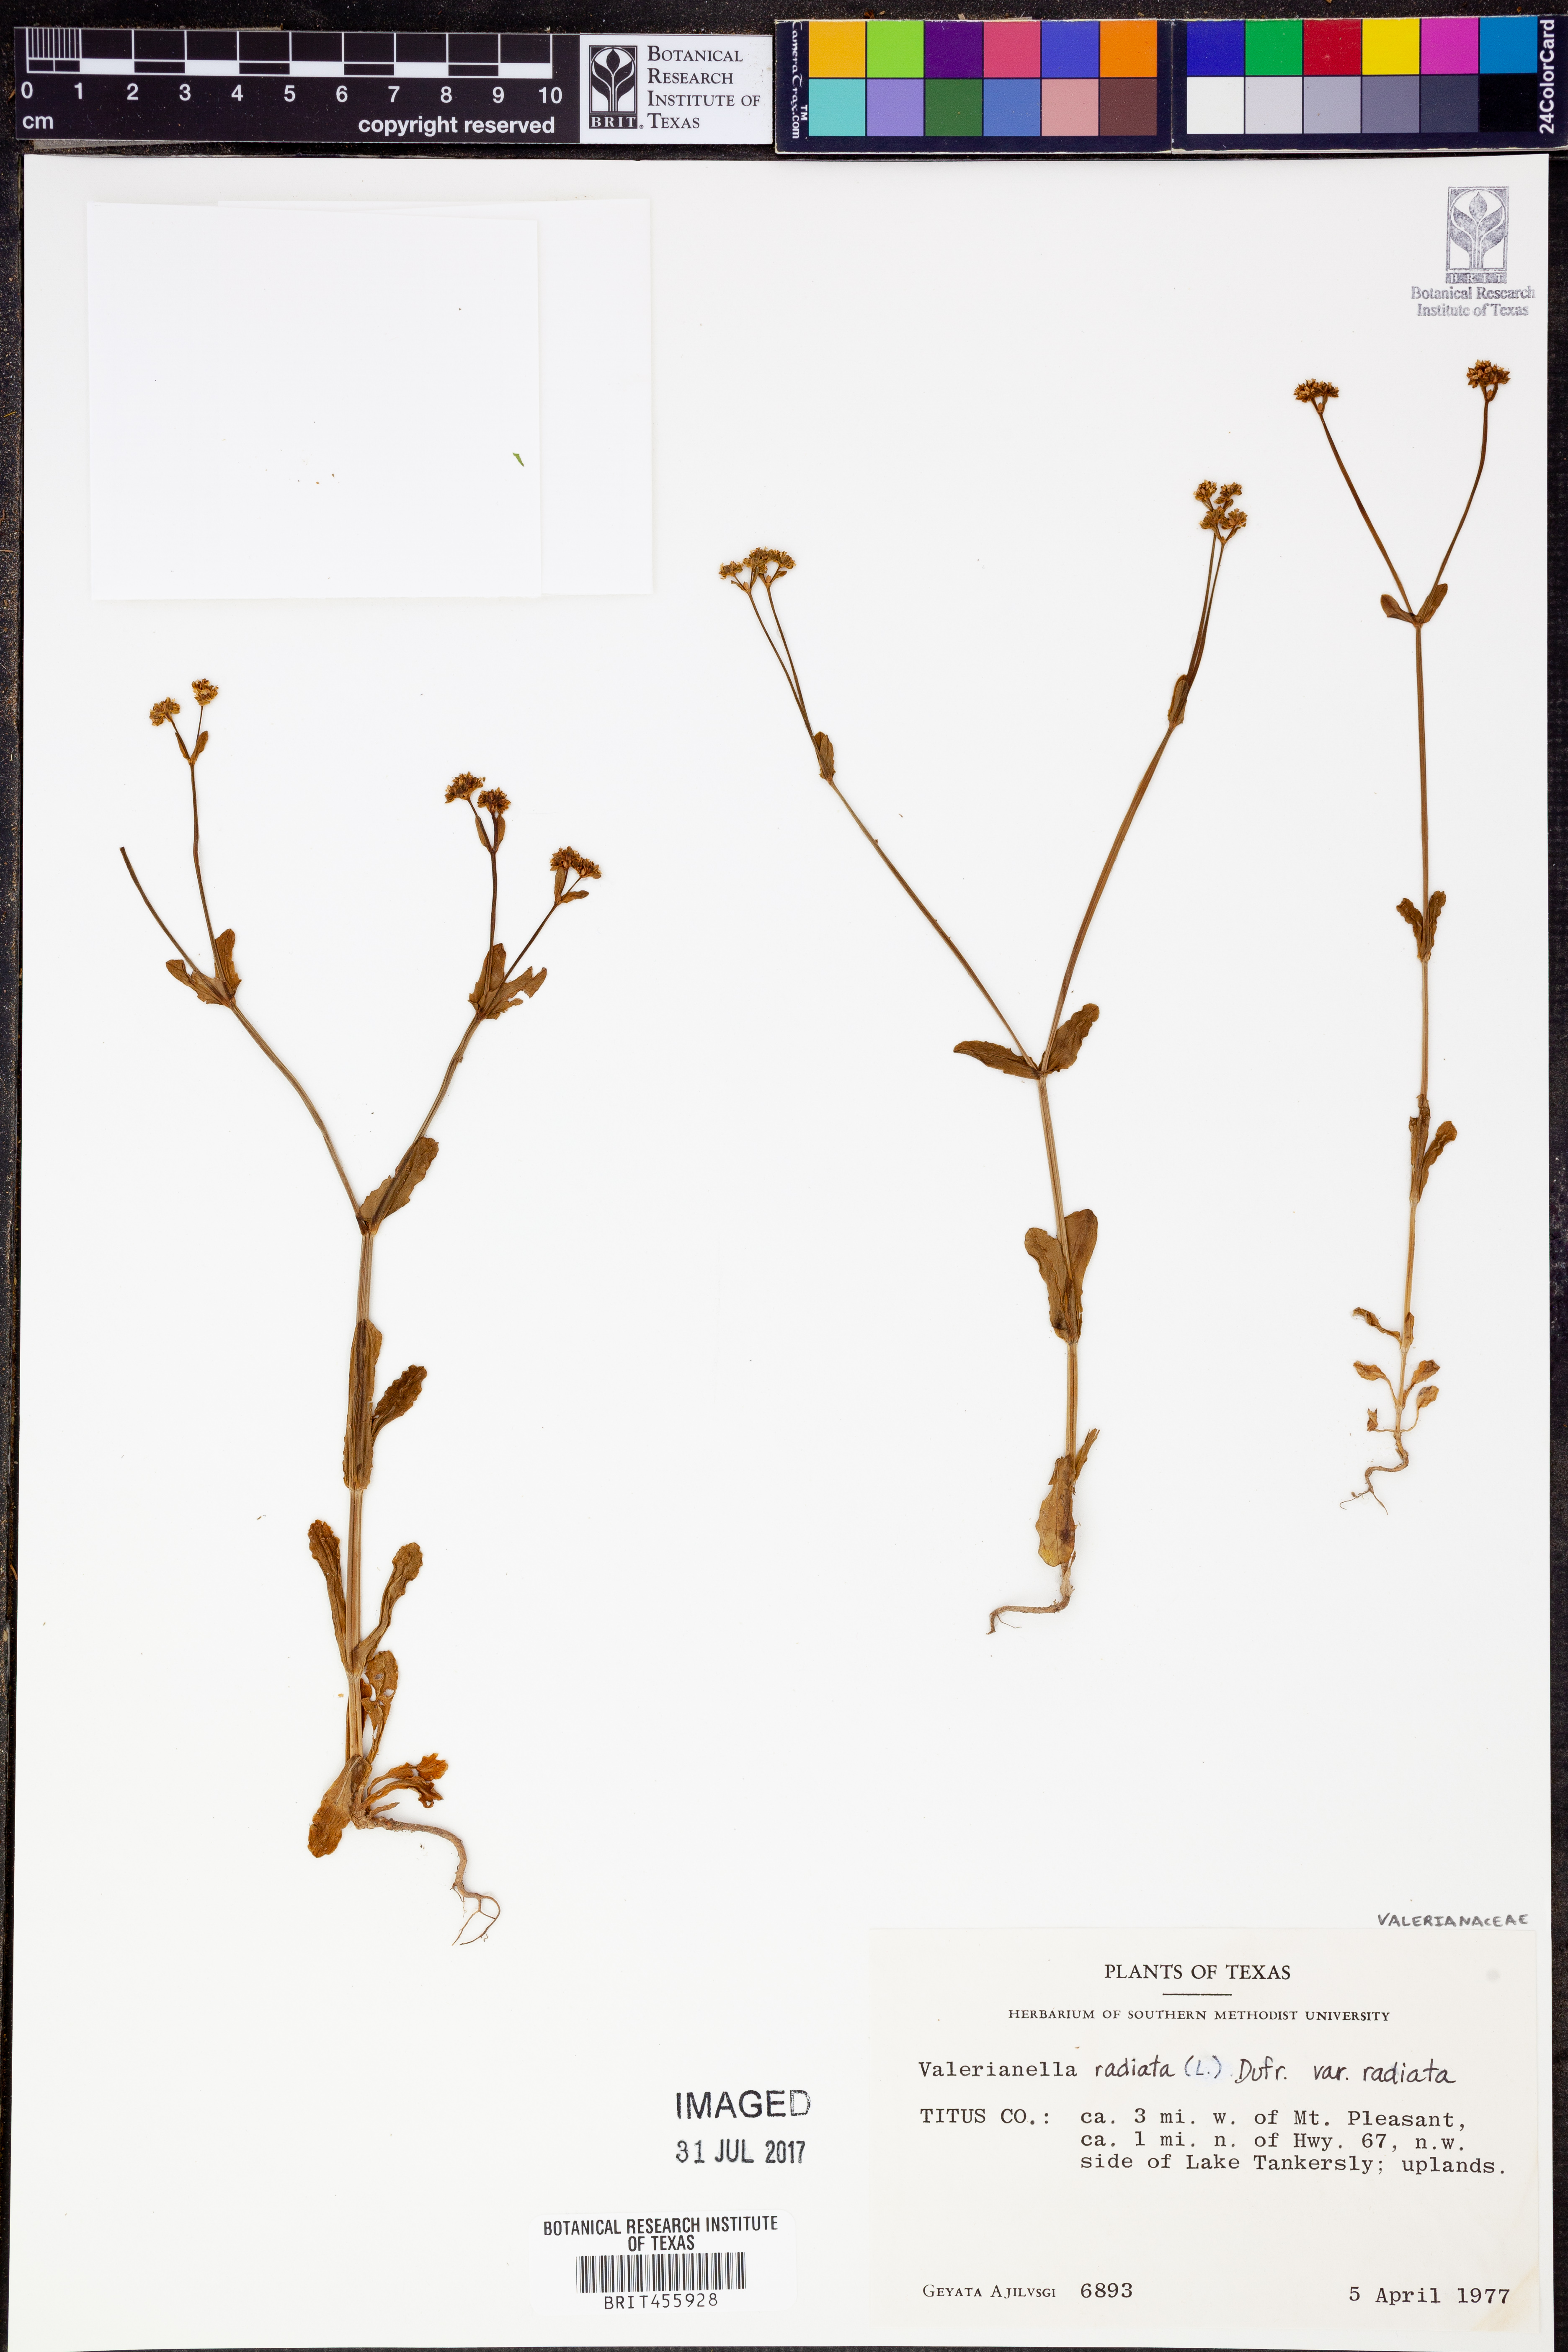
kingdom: Plantae
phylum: Tracheophyta
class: Magnoliopsida
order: Dipsacales
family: Caprifoliaceae
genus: Valerianella
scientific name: Valerianella radiata
